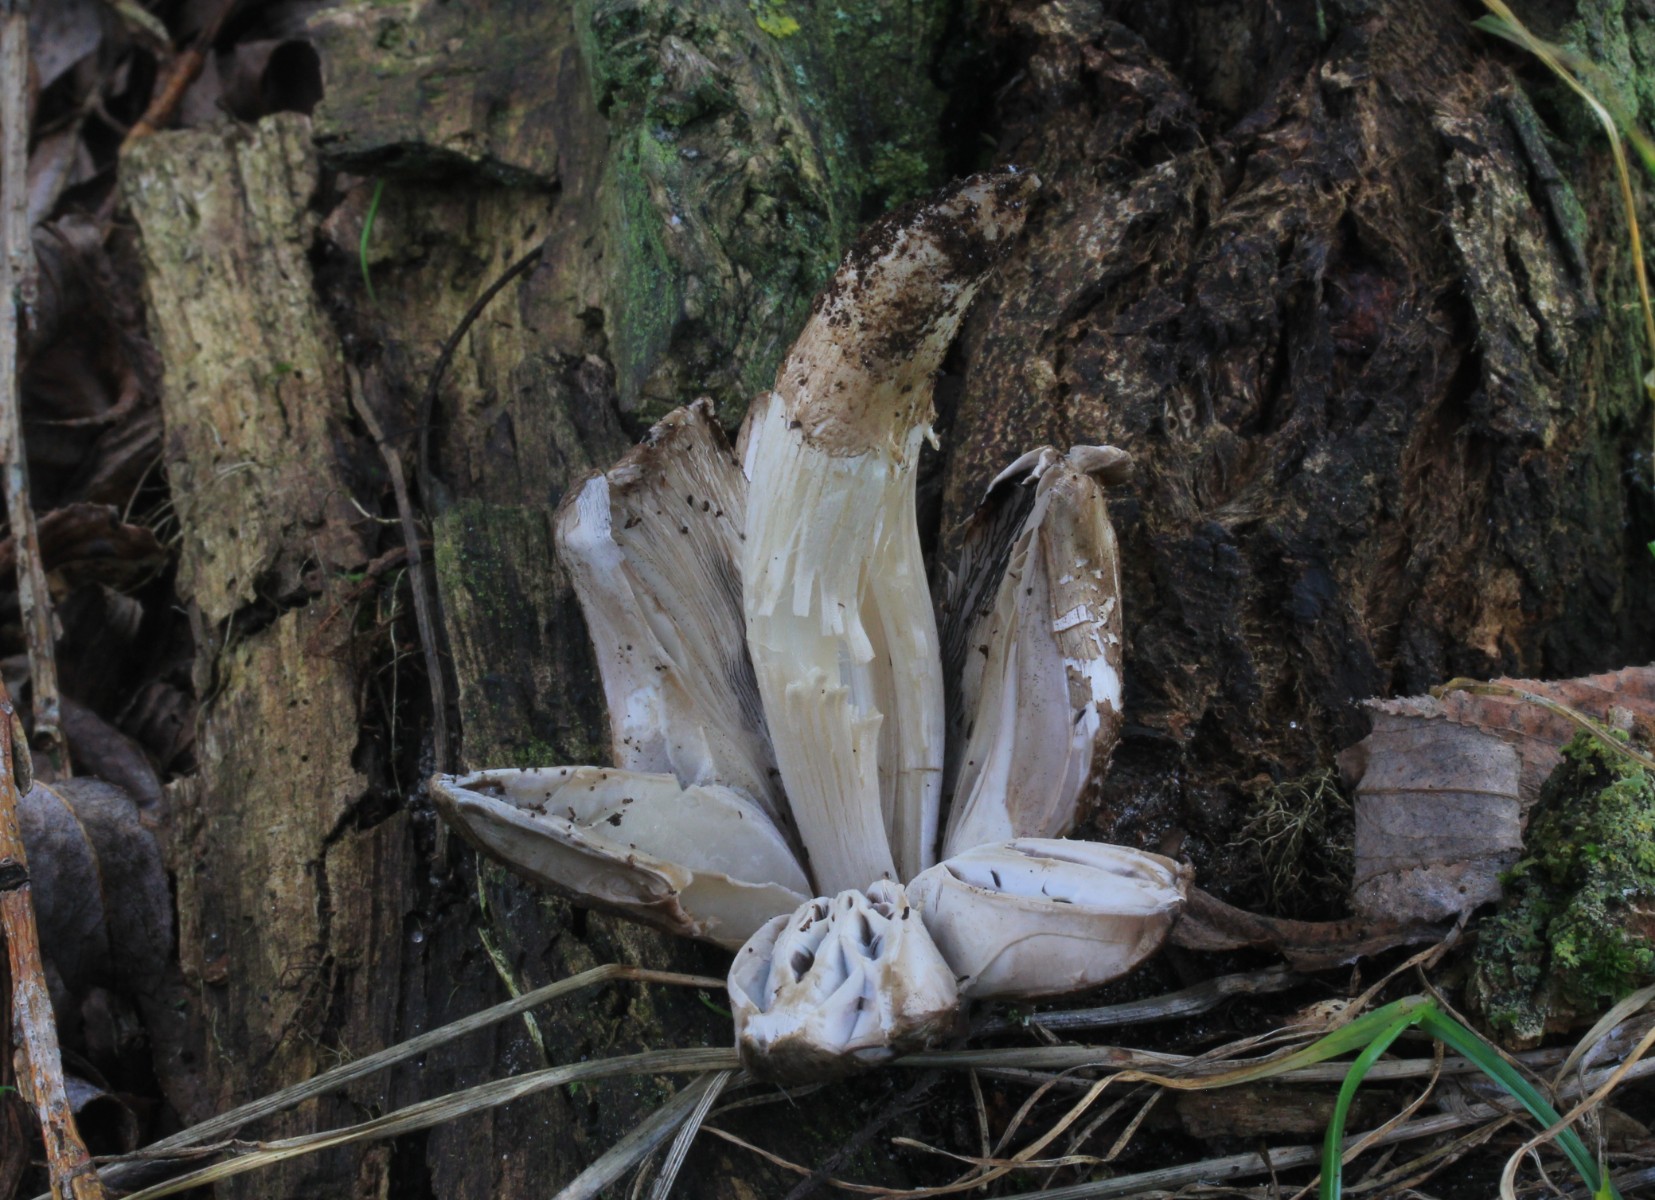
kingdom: Fungi
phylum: Basidiomycota
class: Agaricomycetes
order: Agaricales
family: Psathyrellaceae
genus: Coprinopsis
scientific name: Coprinopsis romagnesiana
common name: brunskællet blækhat
